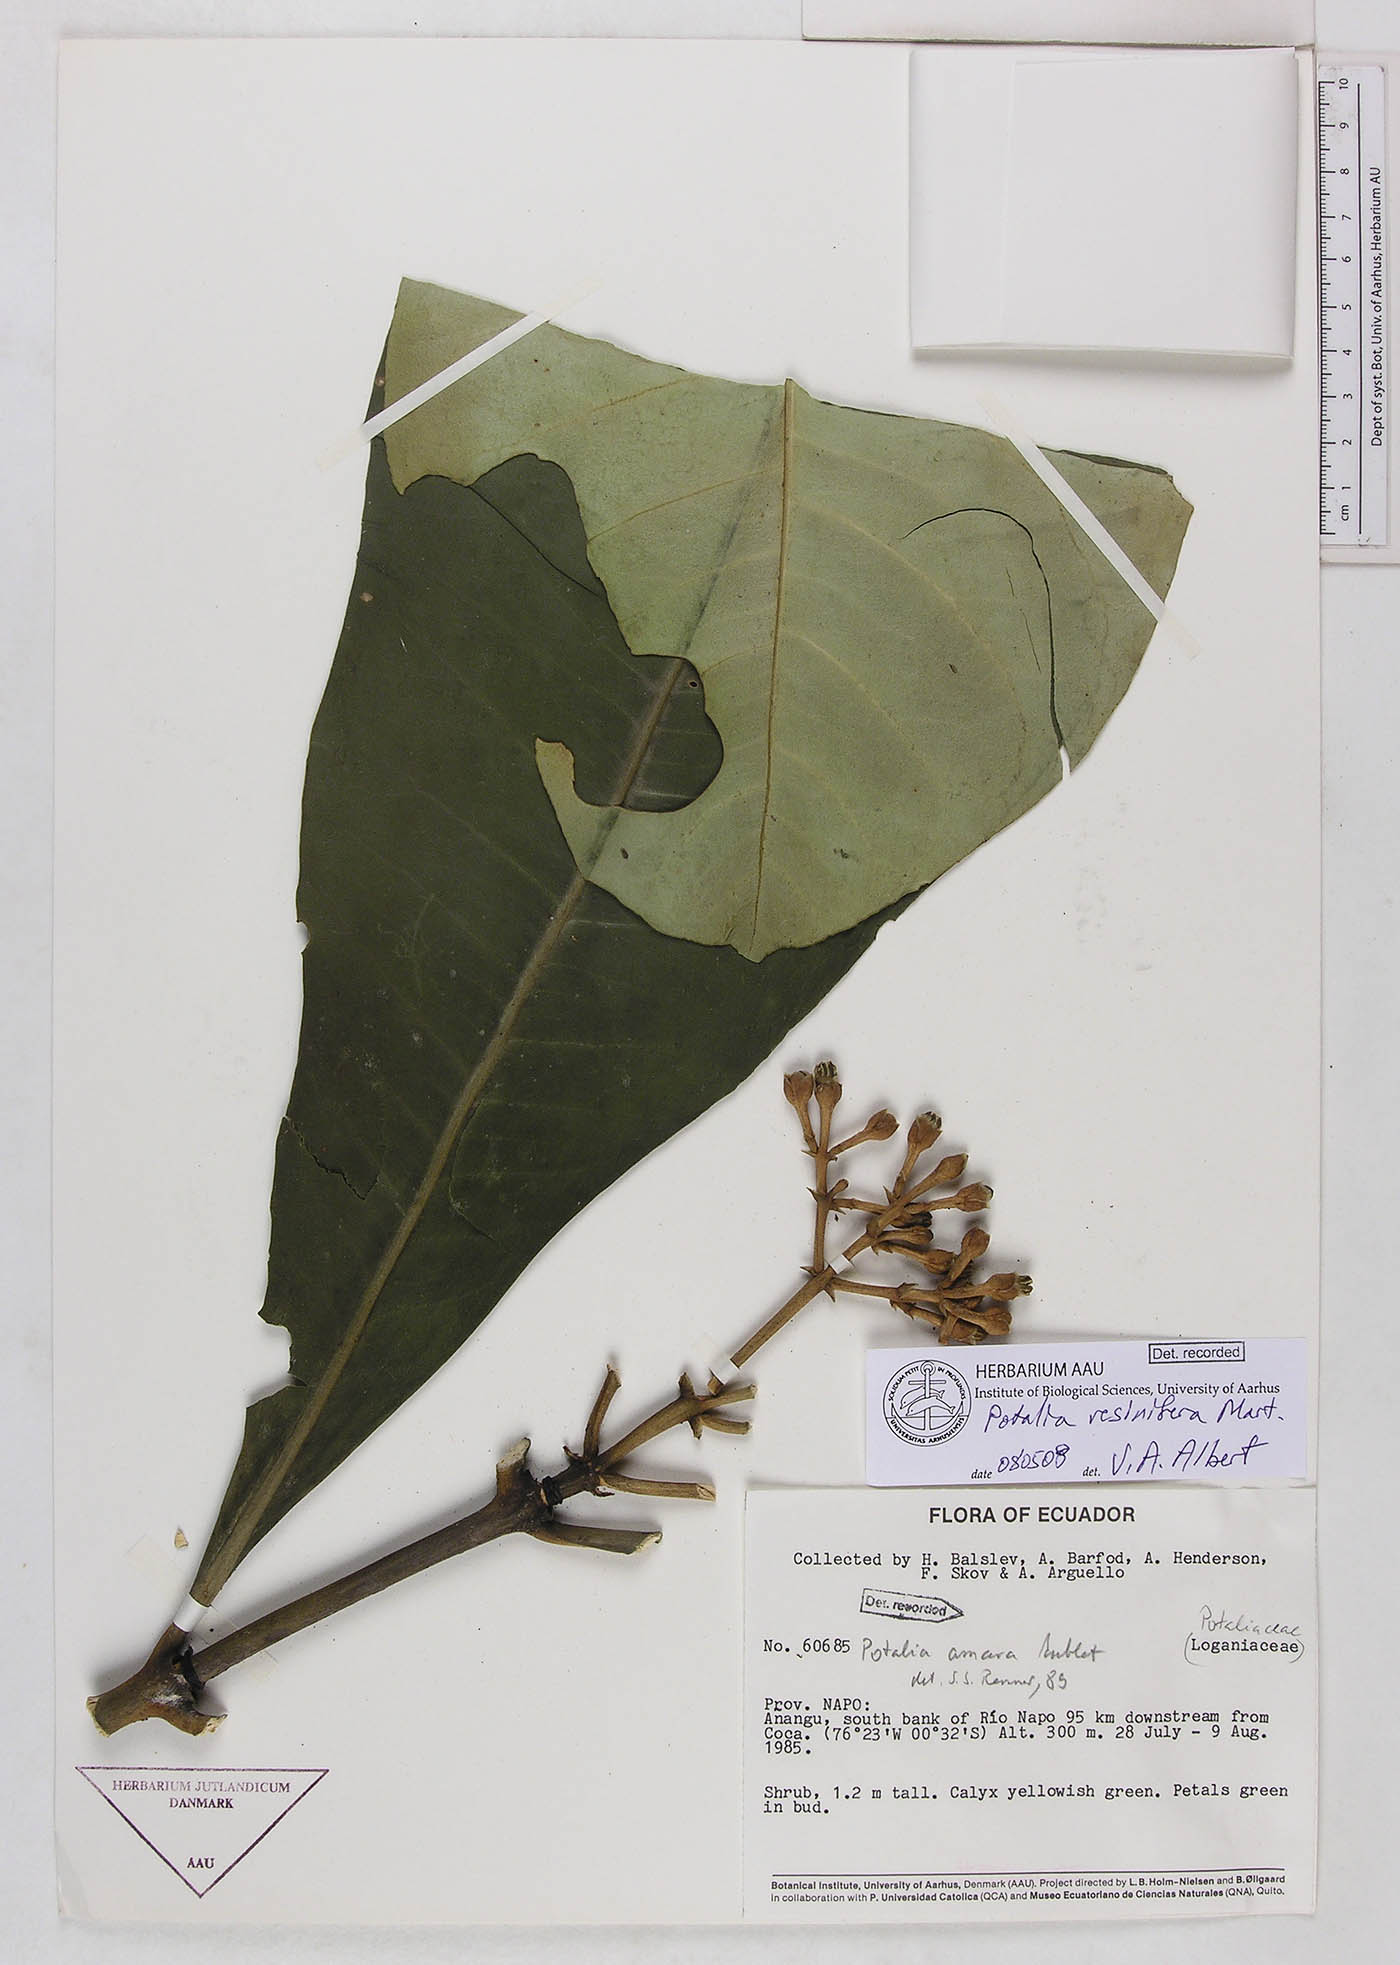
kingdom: Plantae
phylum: Tracheophyta
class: Magnoliopsida
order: Gentianales
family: Gentianaceae
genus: Potalia
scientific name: Potalia resinifera
